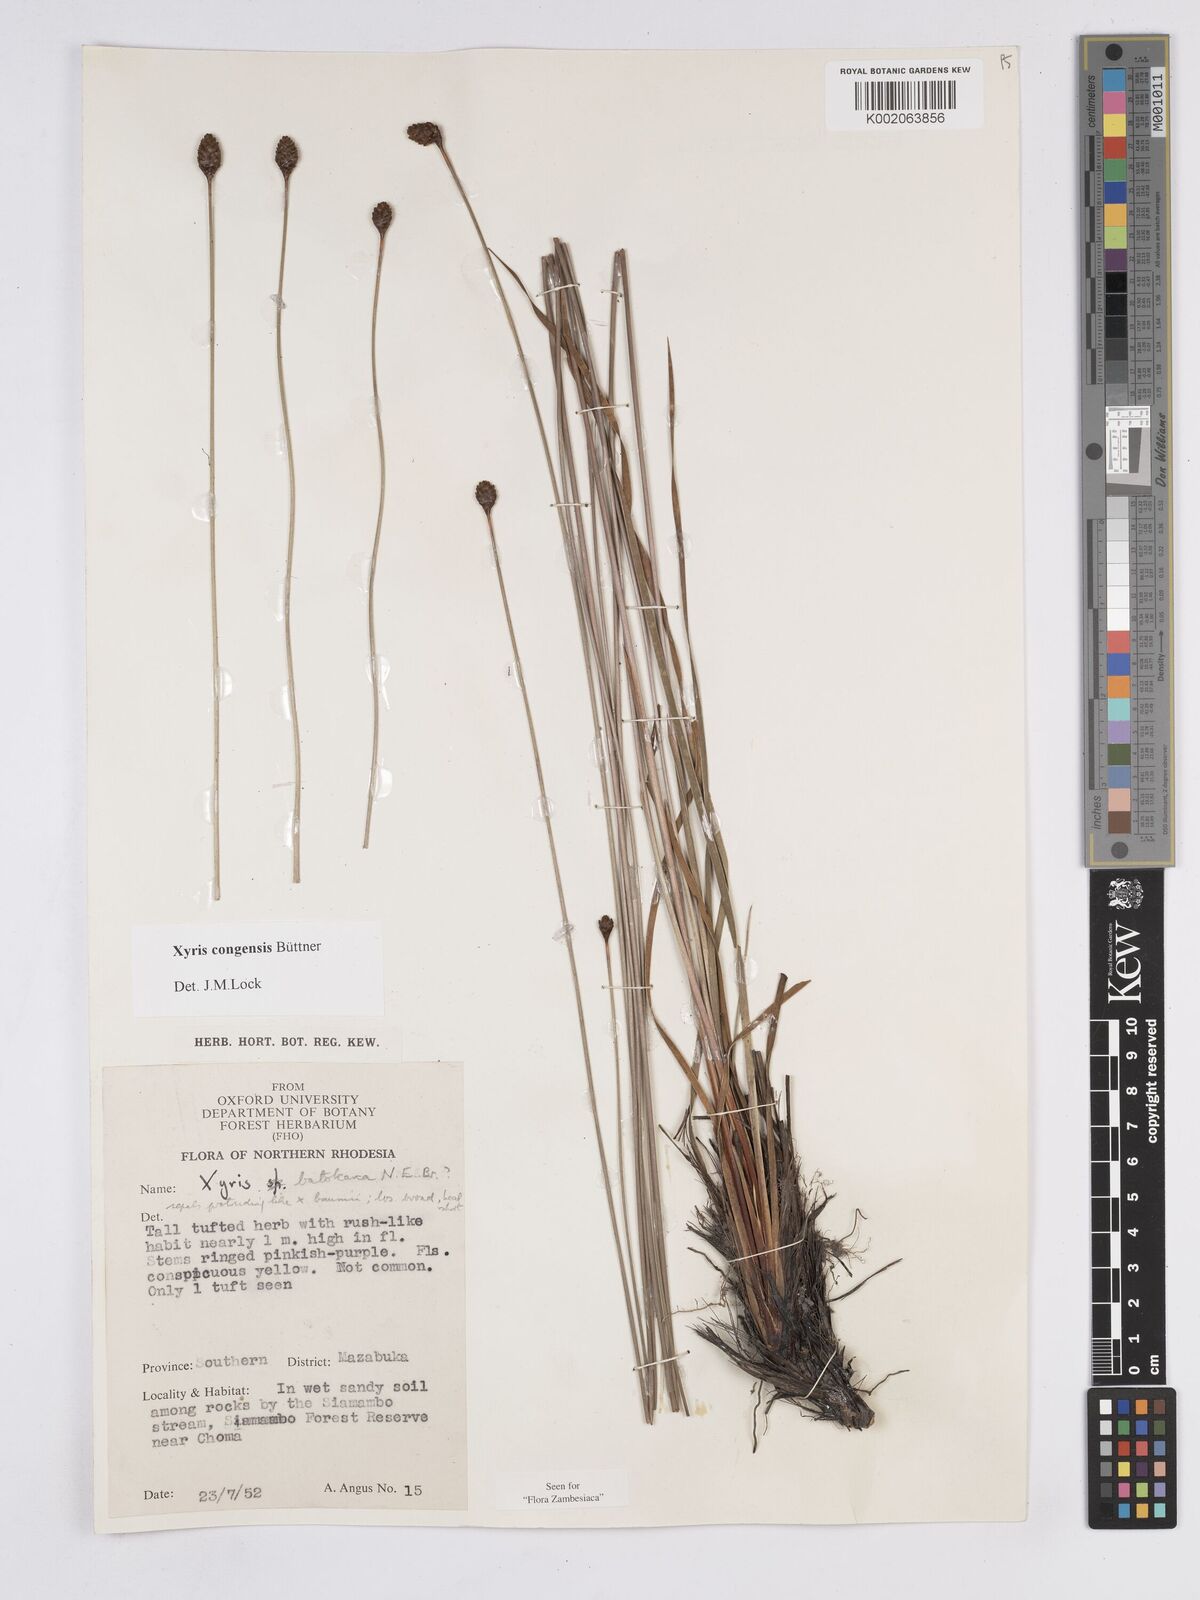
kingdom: Plantae
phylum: Tracheophyta
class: Liliopsida
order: Poales
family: Xyridaceae
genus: Xyris
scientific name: Xyris congensis
